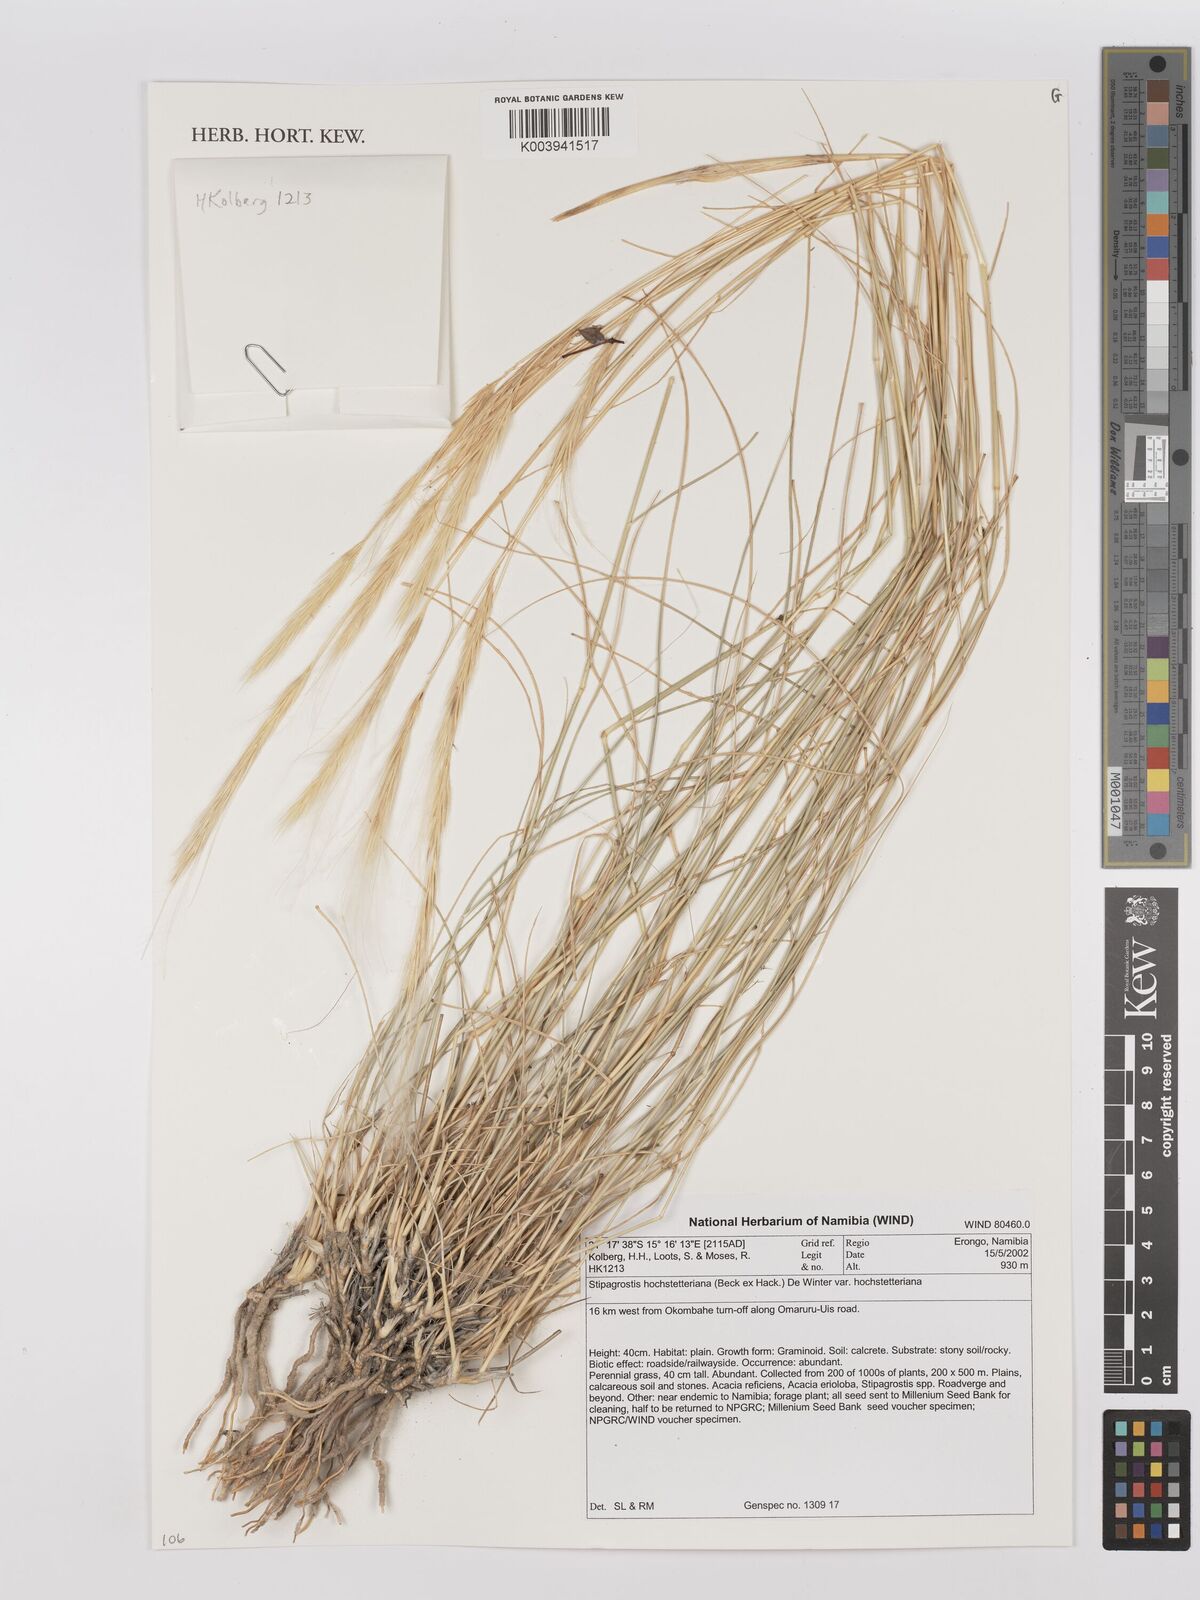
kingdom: Plantae
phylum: Tracheophyta
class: Liliopsida
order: Poales
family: Poaceae
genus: Stipagrostis
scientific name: Stipagrostis hochstetteriana
